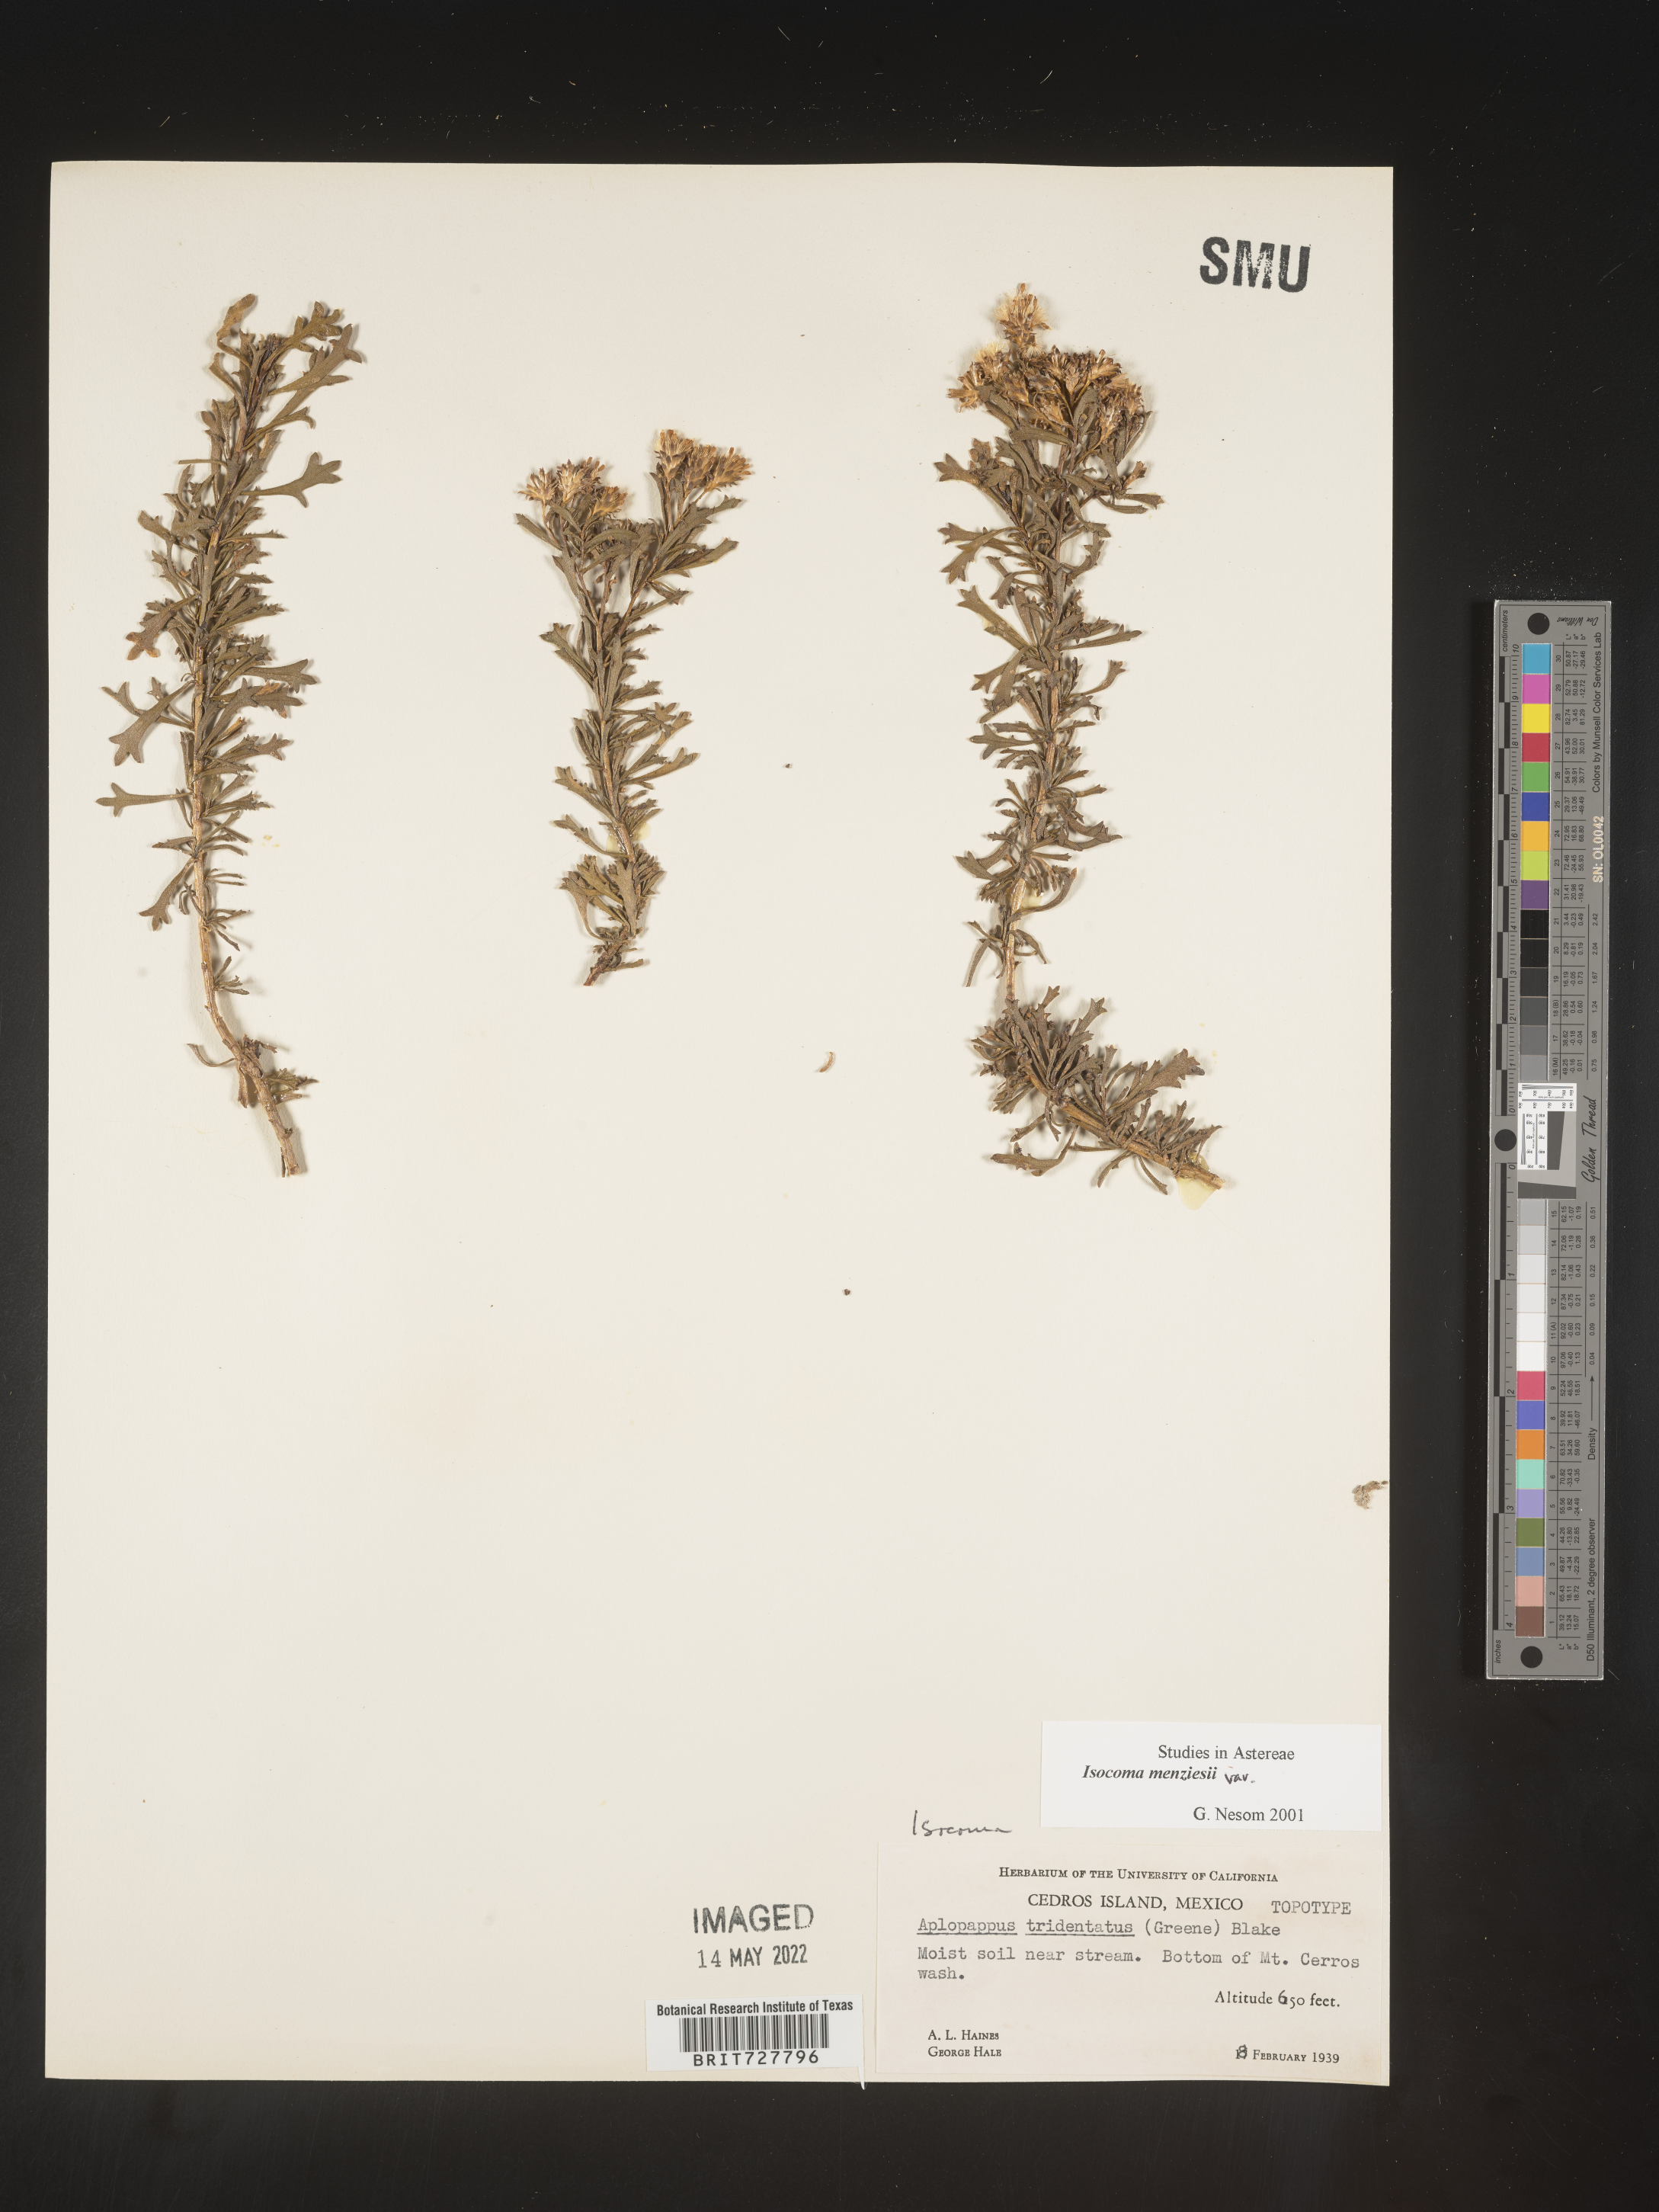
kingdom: Plantae
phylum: Tracheophyta
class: Magnoliopsida
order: Asterales
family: Asteraceae
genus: Isocoma
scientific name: Isocoma
